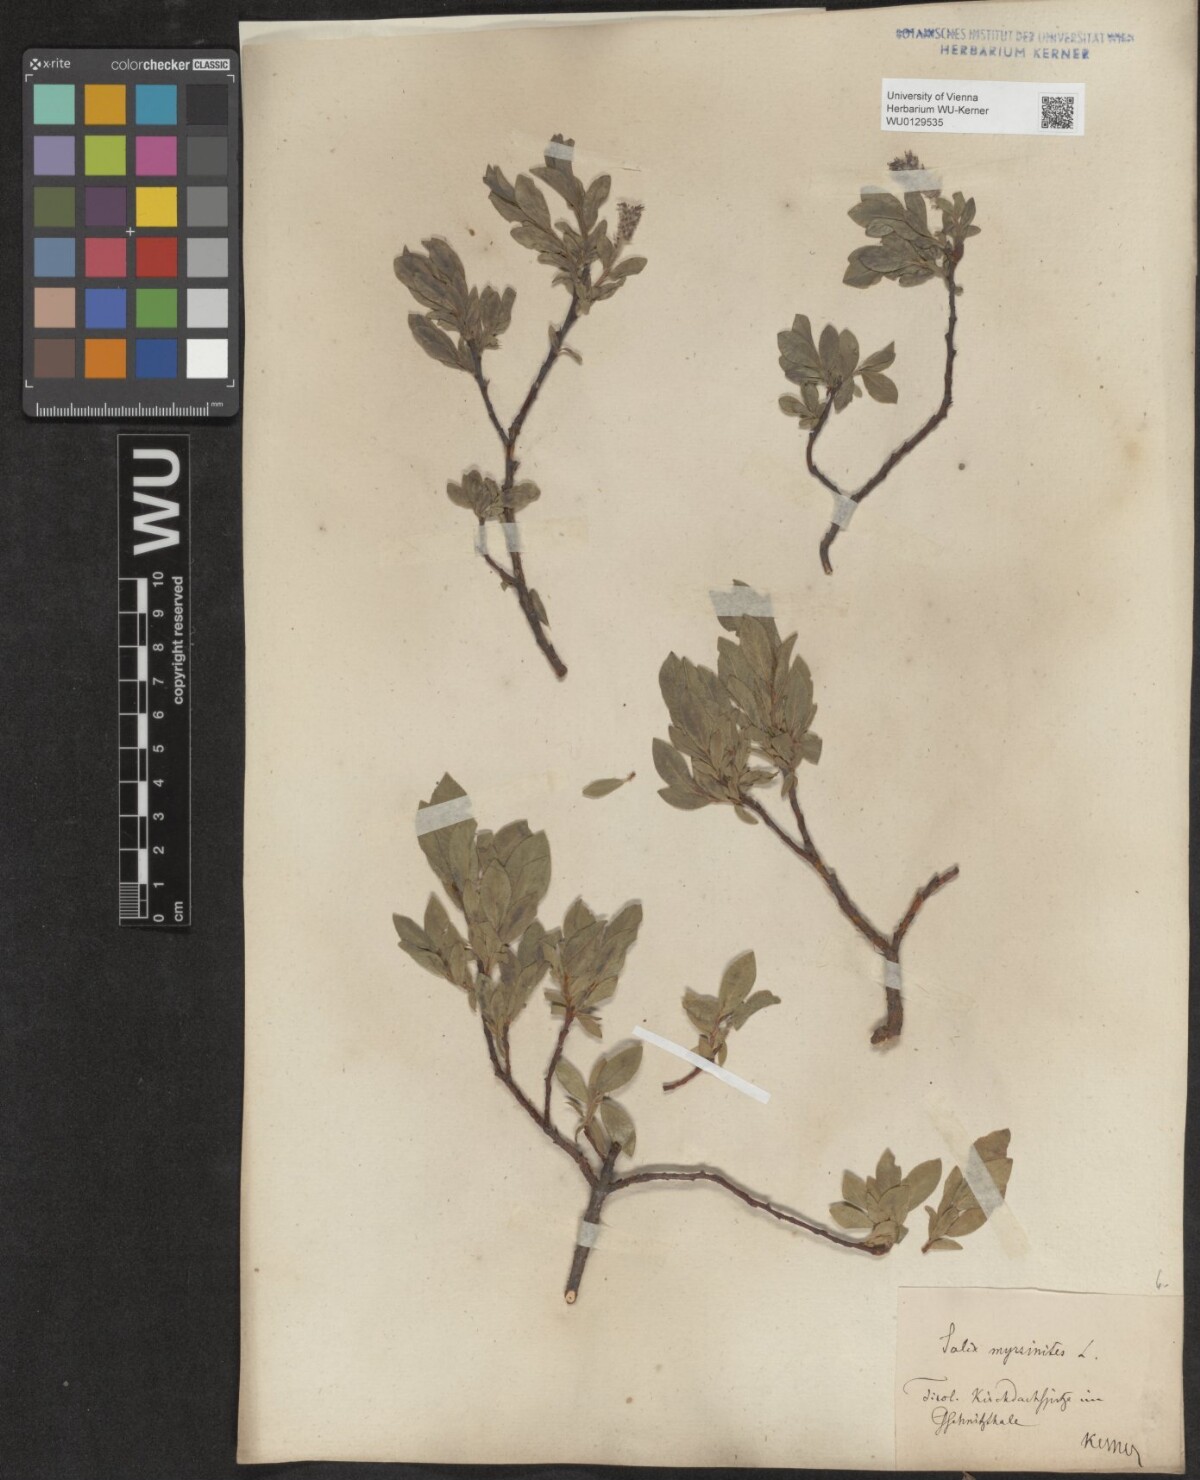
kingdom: Plantae
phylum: Tracheophyta
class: Magnoliopsida
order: Malpighiales
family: Salicaceae
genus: Salix
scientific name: Salix breviserrata
